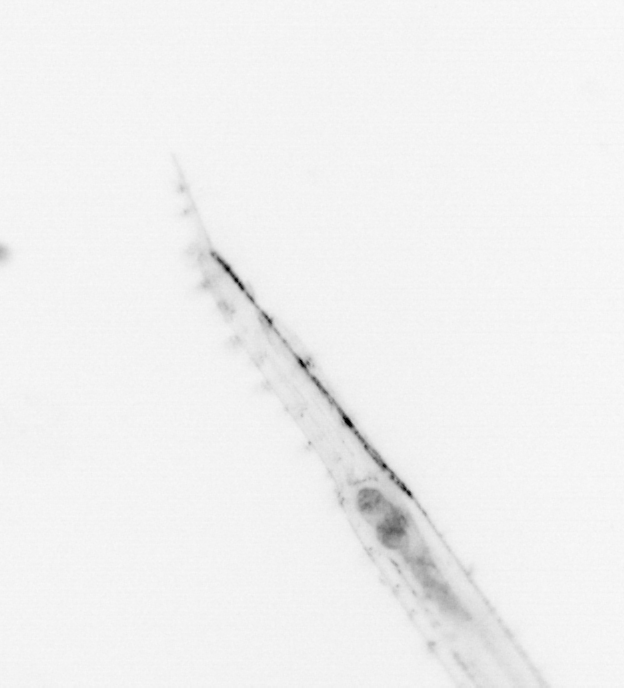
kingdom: Animalia
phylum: Chaetognatha
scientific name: Chaetognatha
